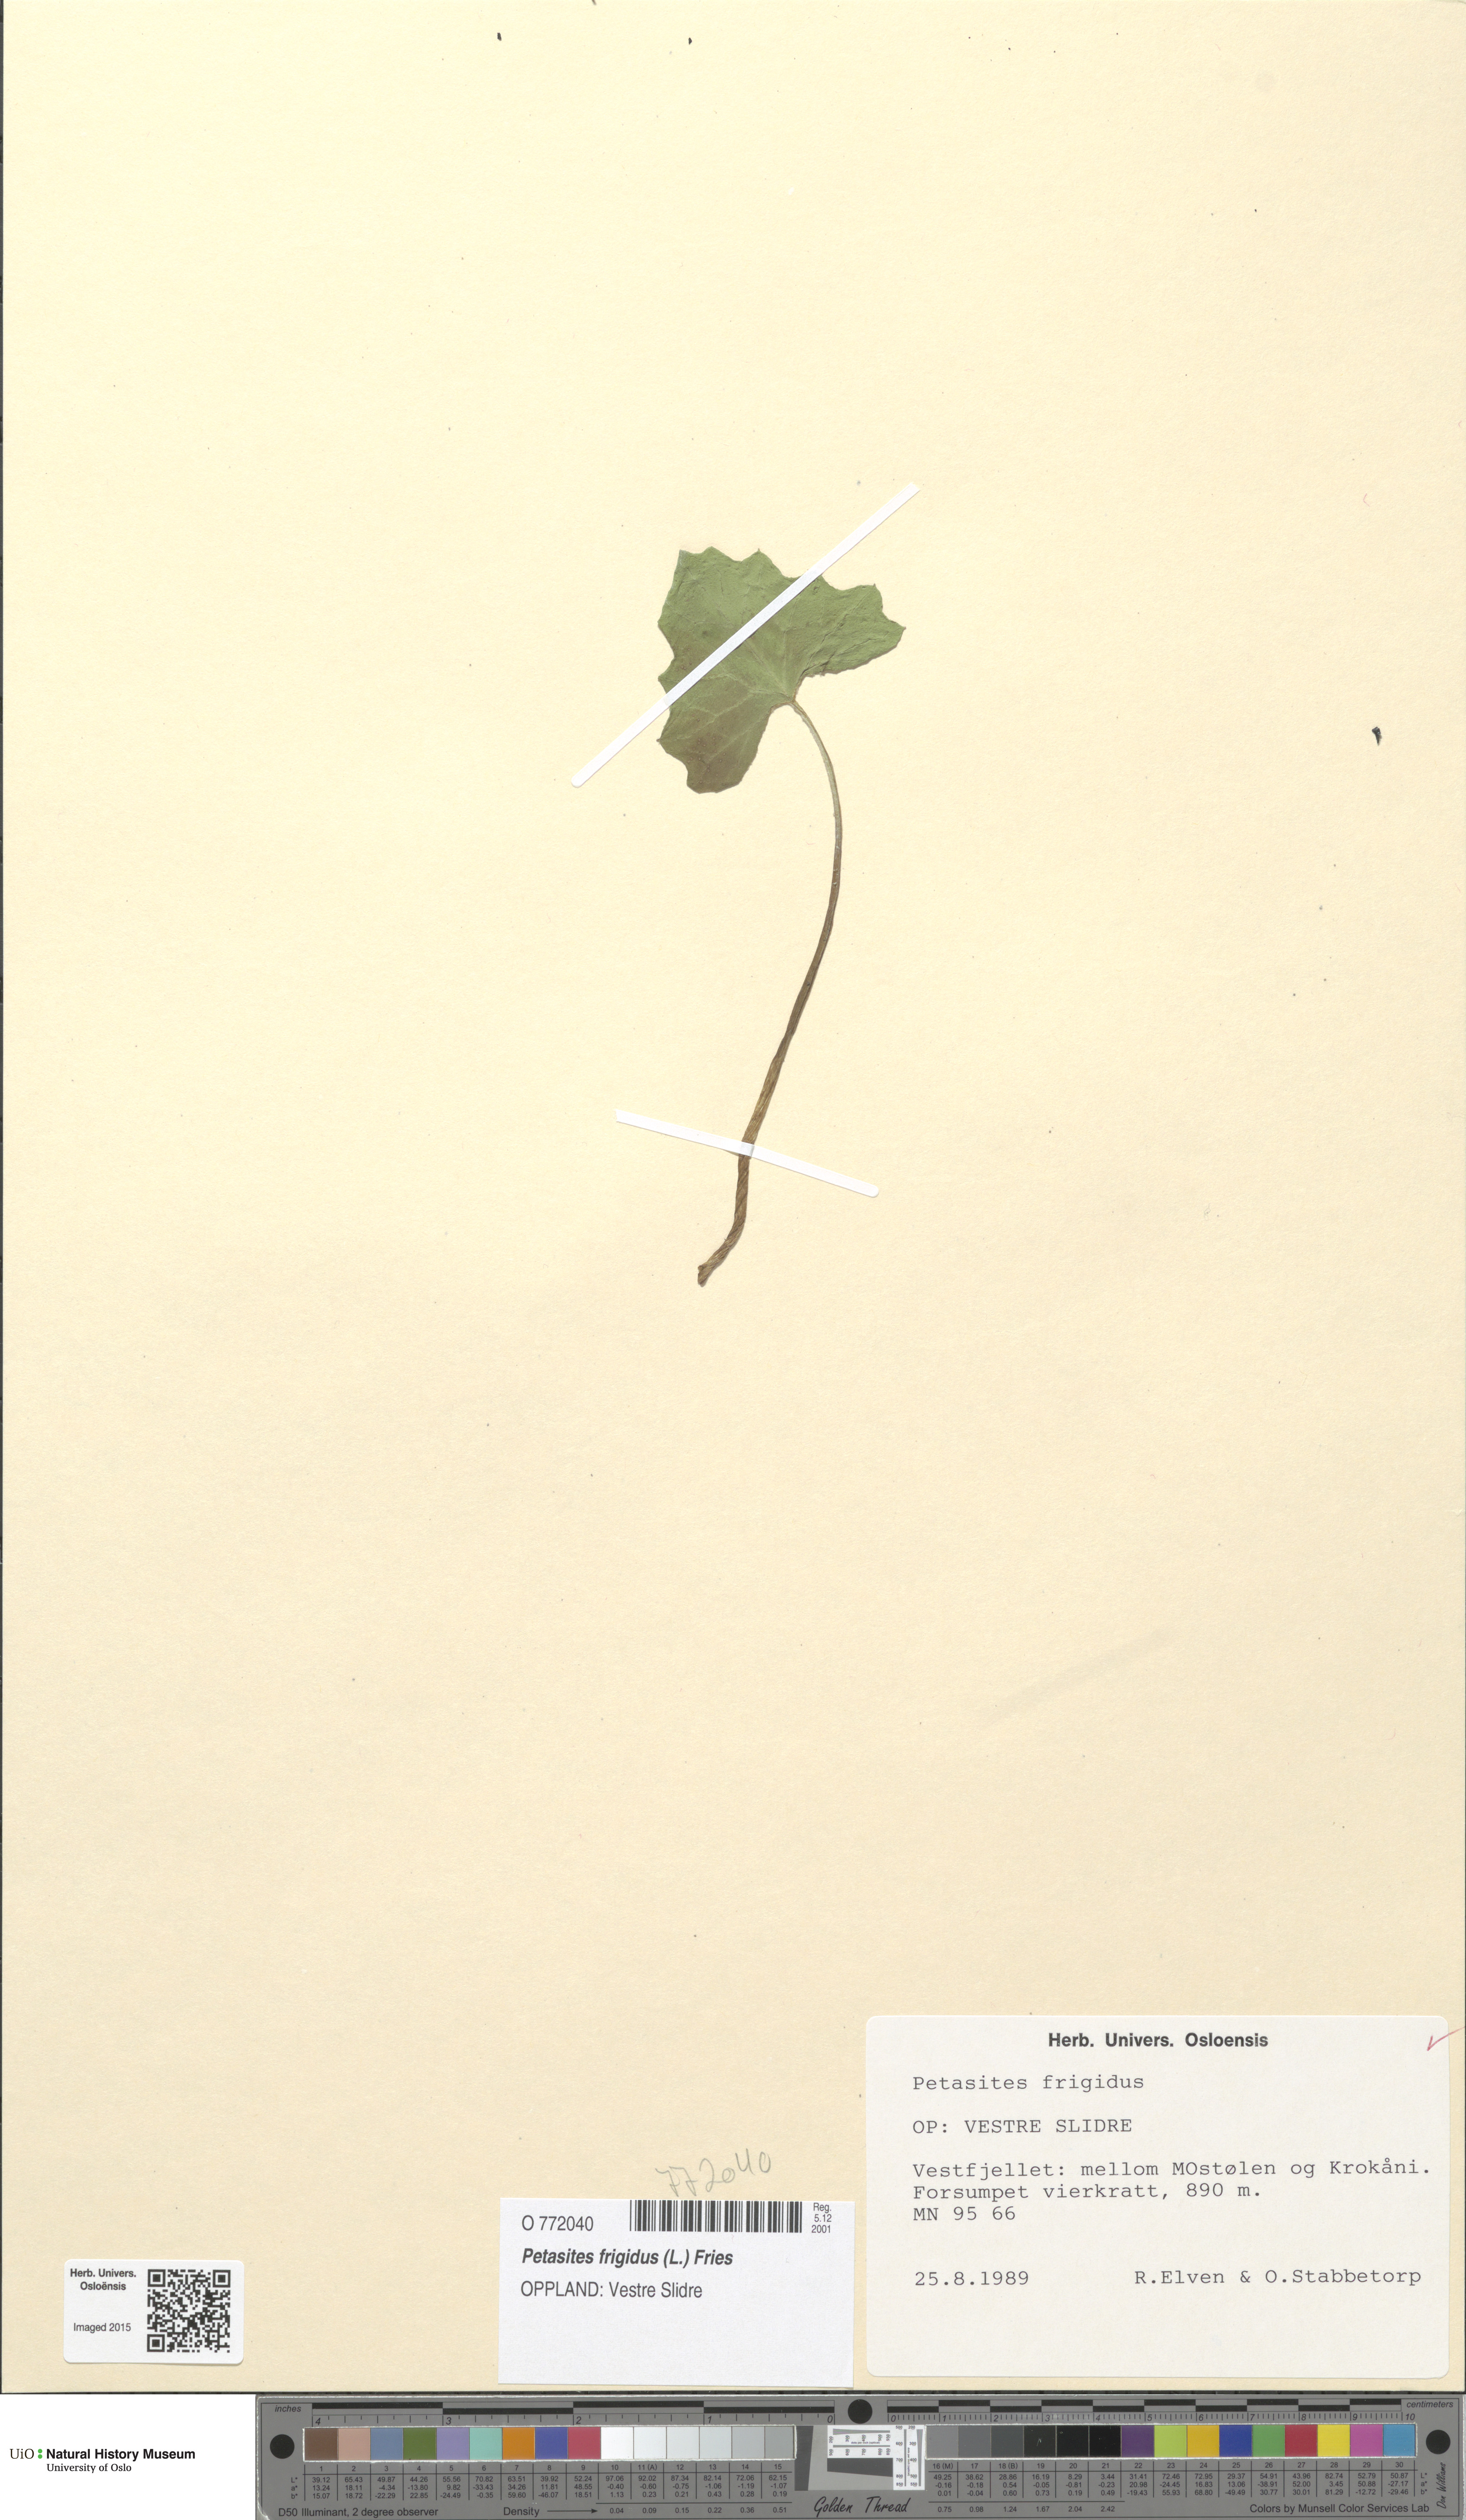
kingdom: Plantae
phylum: Tracheophyta
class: Magnoliopsida
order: Asterales
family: Asteraceae
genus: Petasites
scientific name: Petasites frigidus
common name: Arctic butterbur
